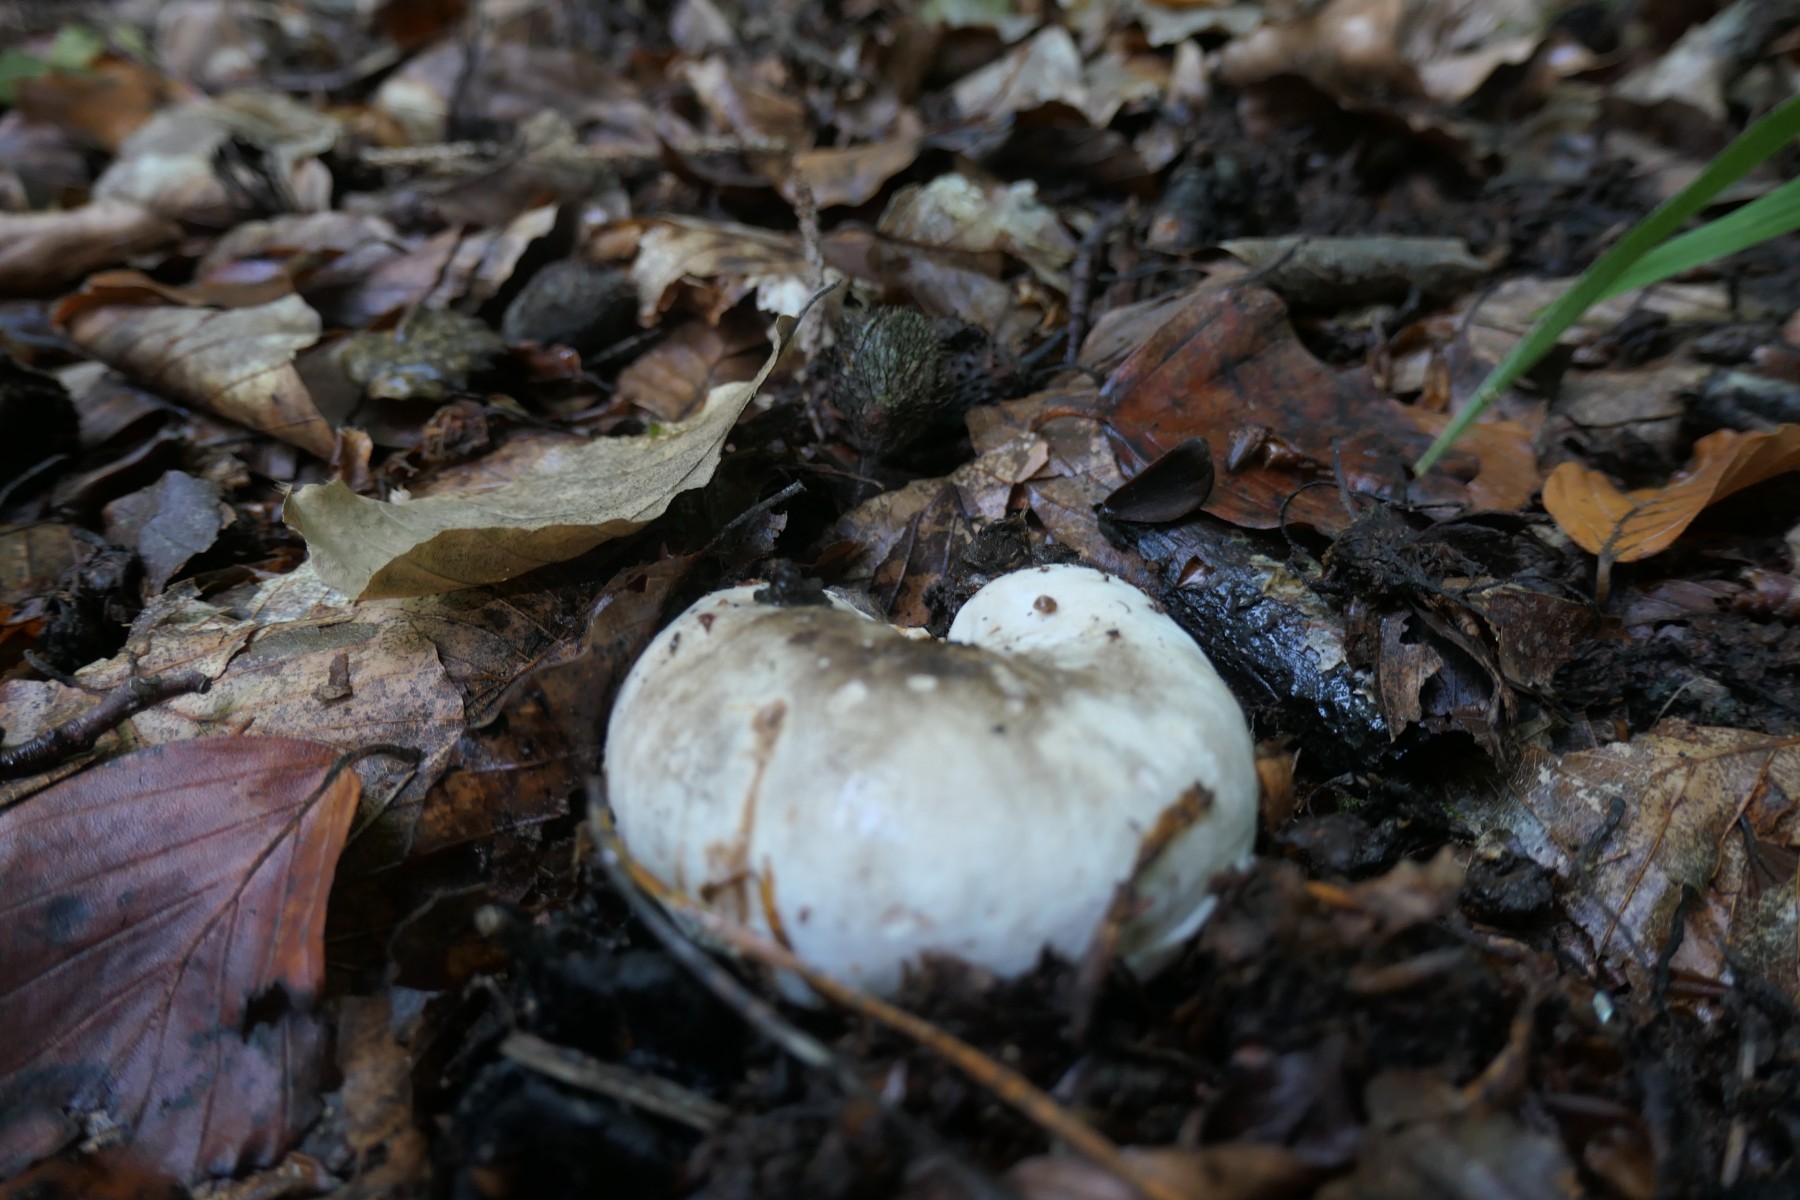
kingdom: Fungi
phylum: Basidiomycota
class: Agaricomycetes
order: Russulales
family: Russulaceae
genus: Russula
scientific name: Russula adusta
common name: sværtende skørhat
